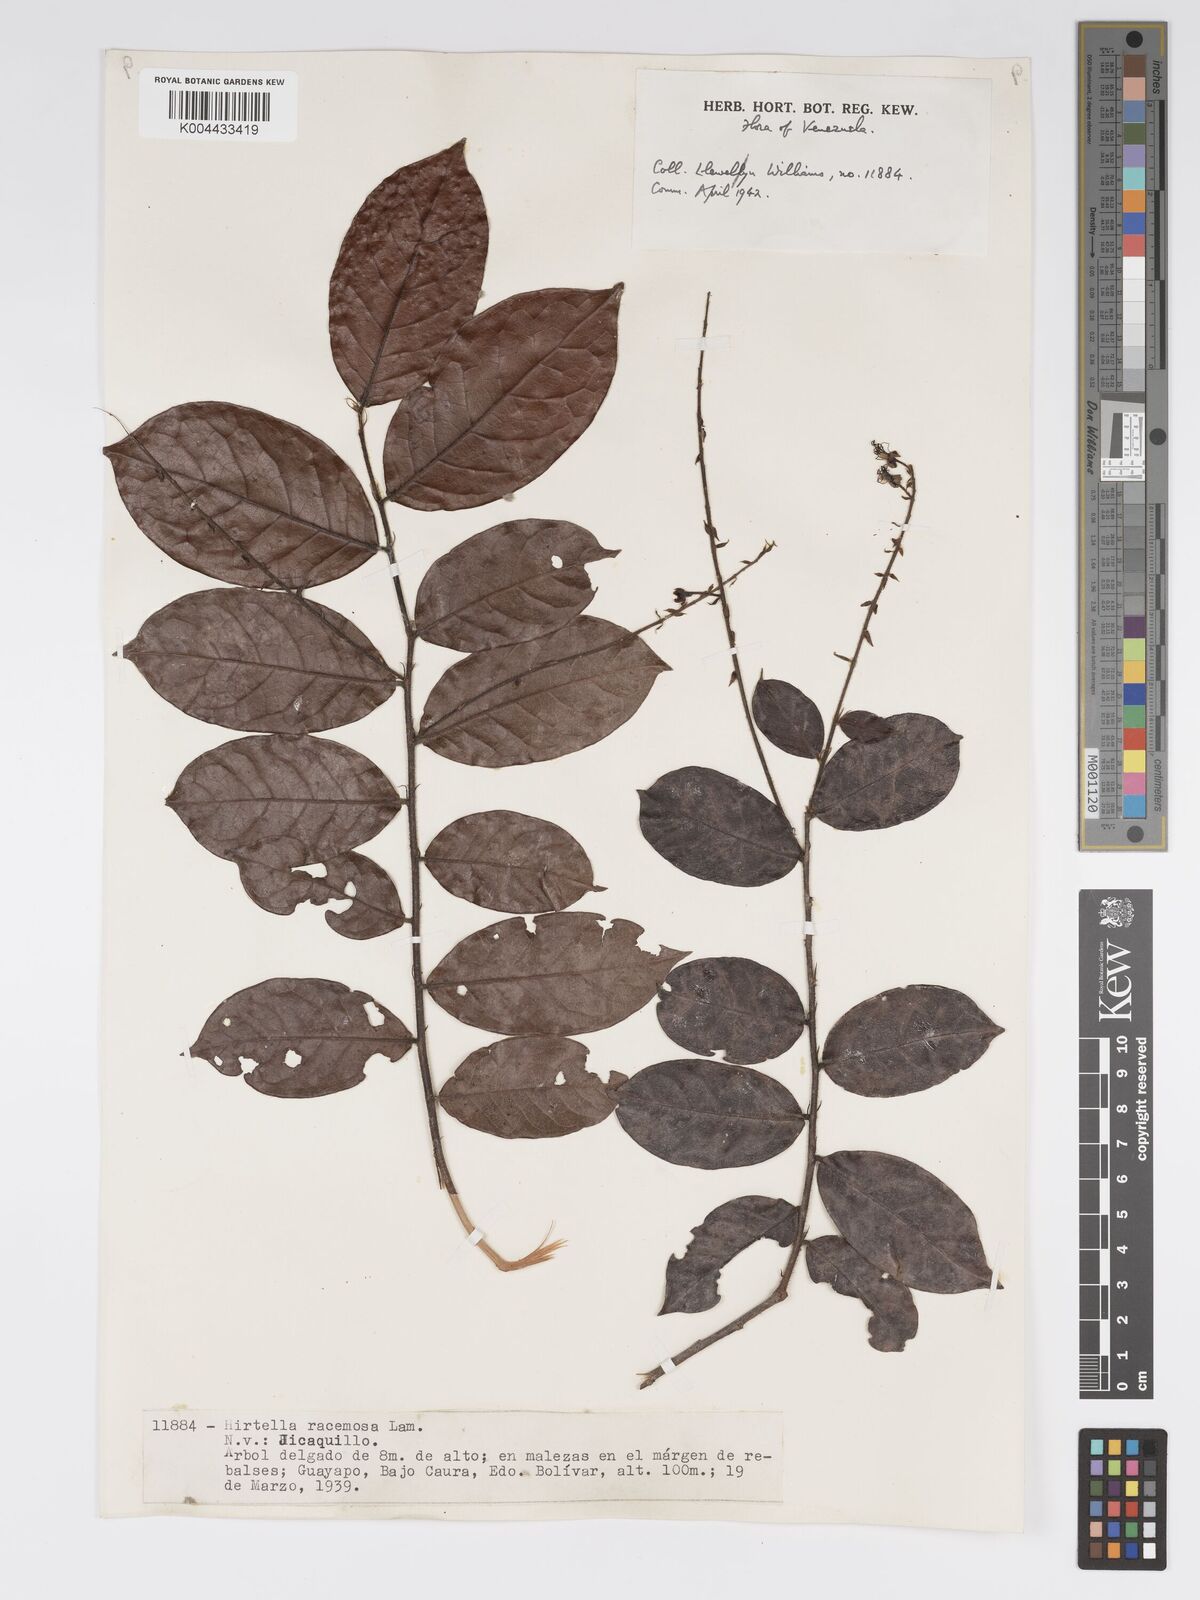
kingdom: Plantae
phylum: Tracheophyta
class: Magnoliopsida
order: Malpighiales
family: Chrysobalanaceae
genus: Hirtella
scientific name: Hirtella racemosa
